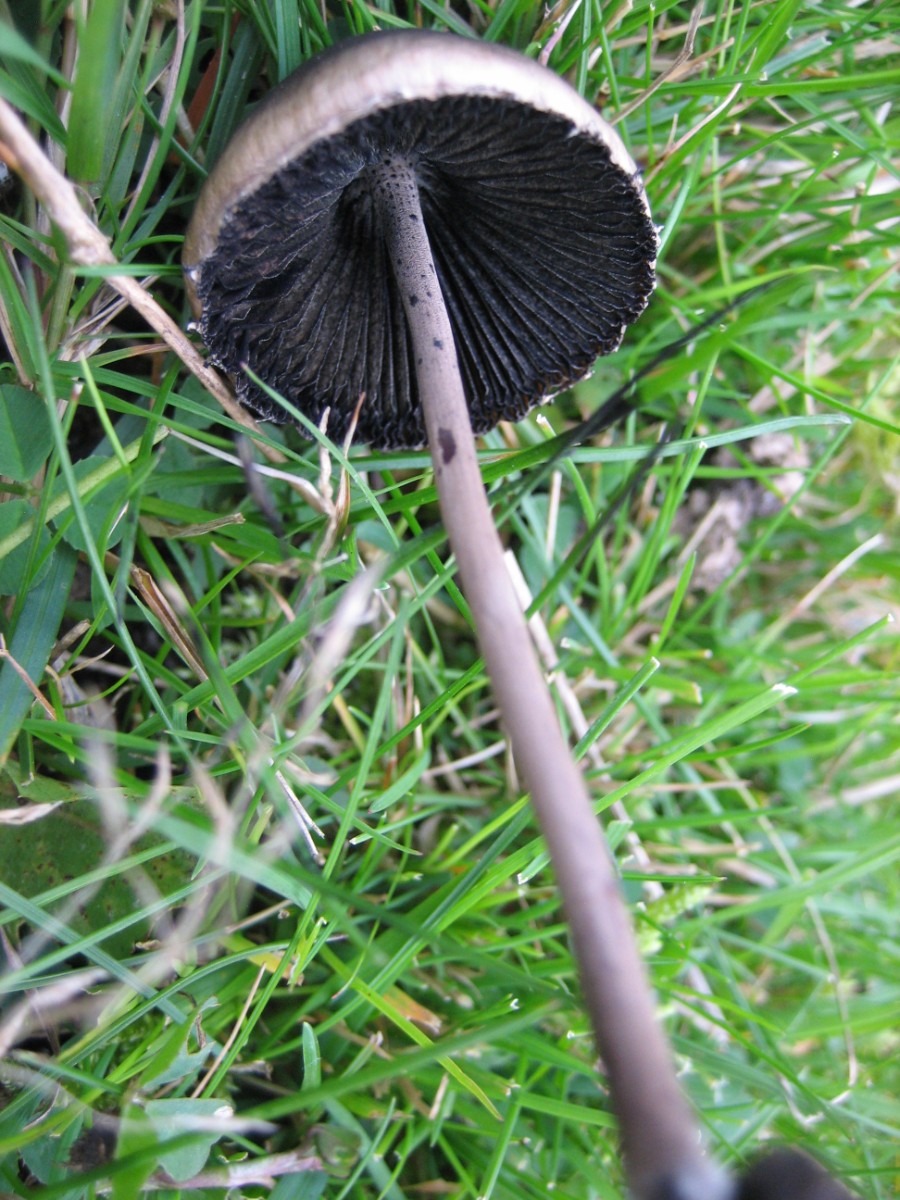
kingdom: Fungi
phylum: Basidiomycota
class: Agaricomycetes
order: Agaricales
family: Bolbitiaceae
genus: Panaeolus
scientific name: Panaeolus papilionaceus
